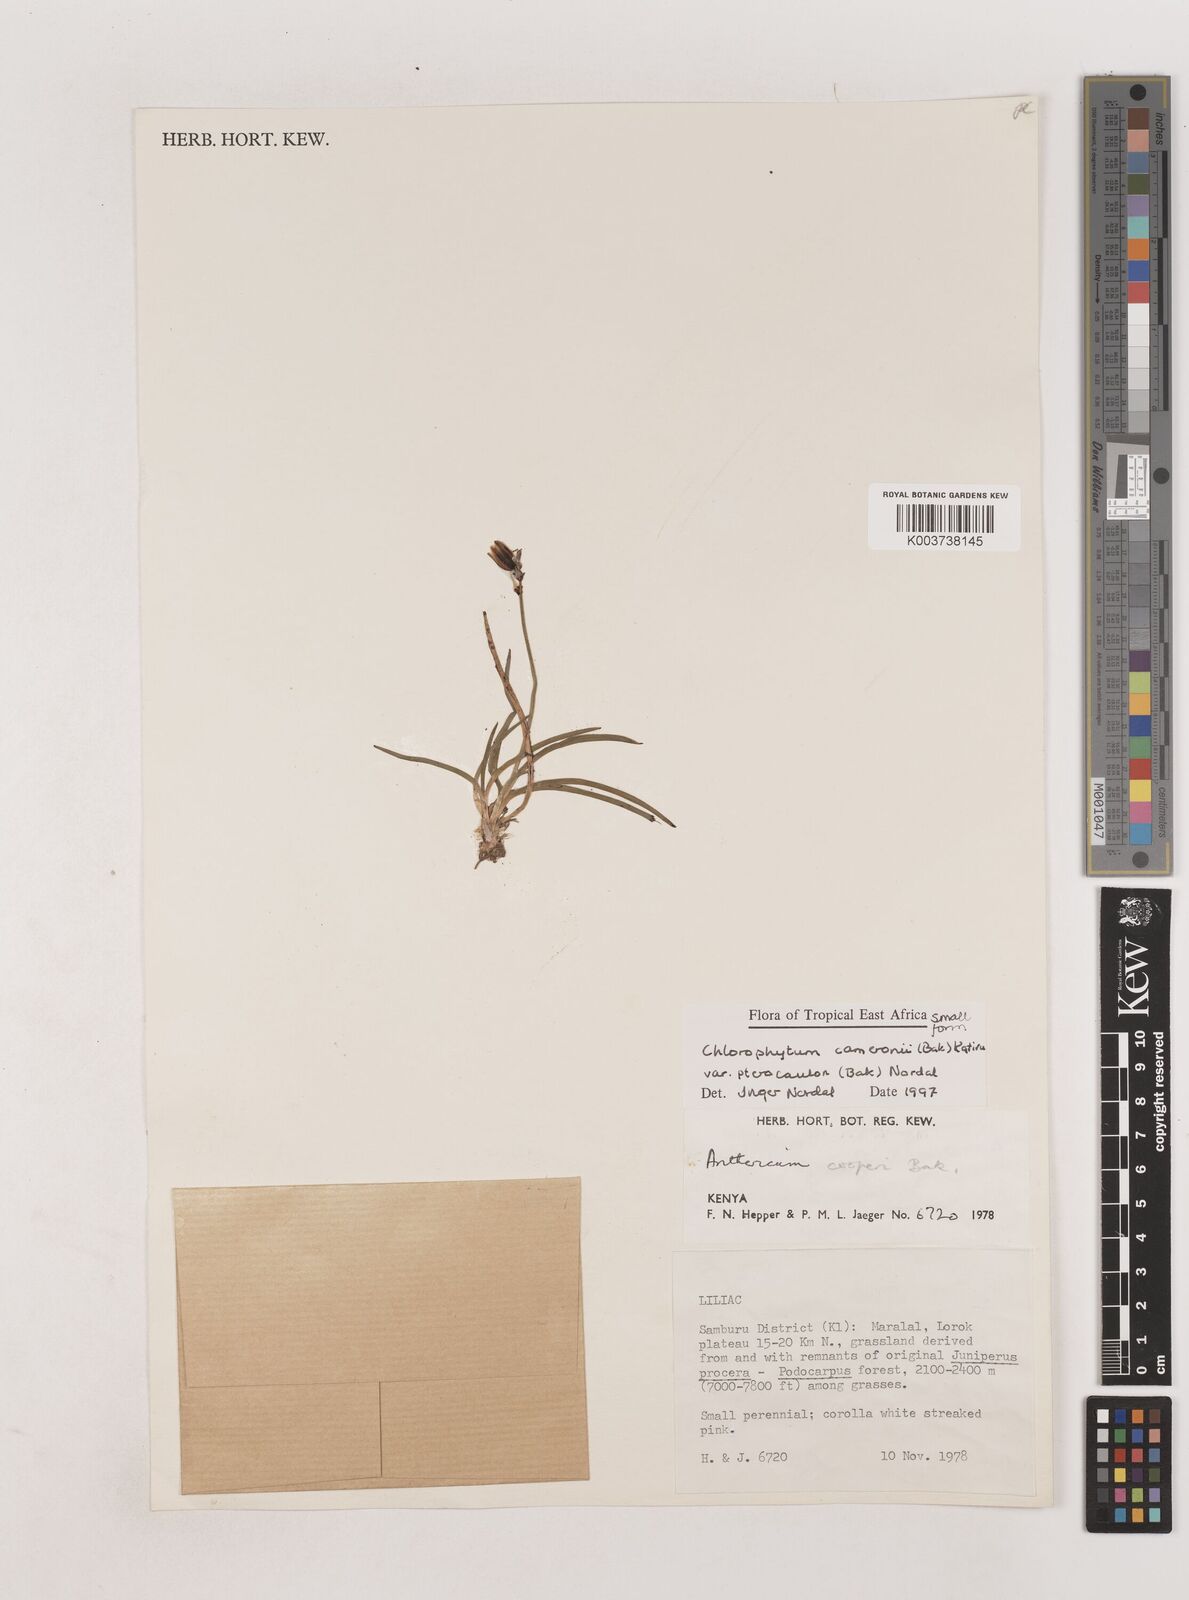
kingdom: Plantae
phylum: Tracheophyta
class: Liliopsida
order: Asparagales
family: Asparagaceae
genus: Chlorophytum
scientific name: Chlorophytum cameronii
